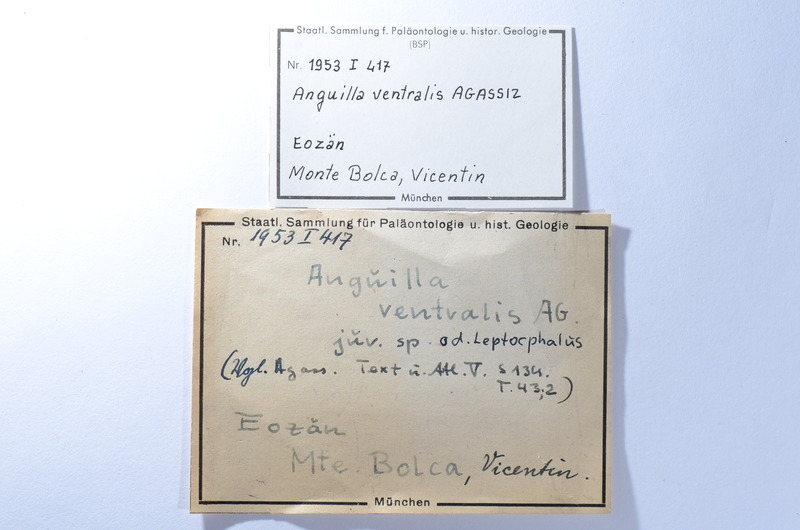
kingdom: Animalia
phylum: Chordata
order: Anguilliformes
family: Anguillidae
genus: Anguilla
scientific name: Anguilla ventralis
